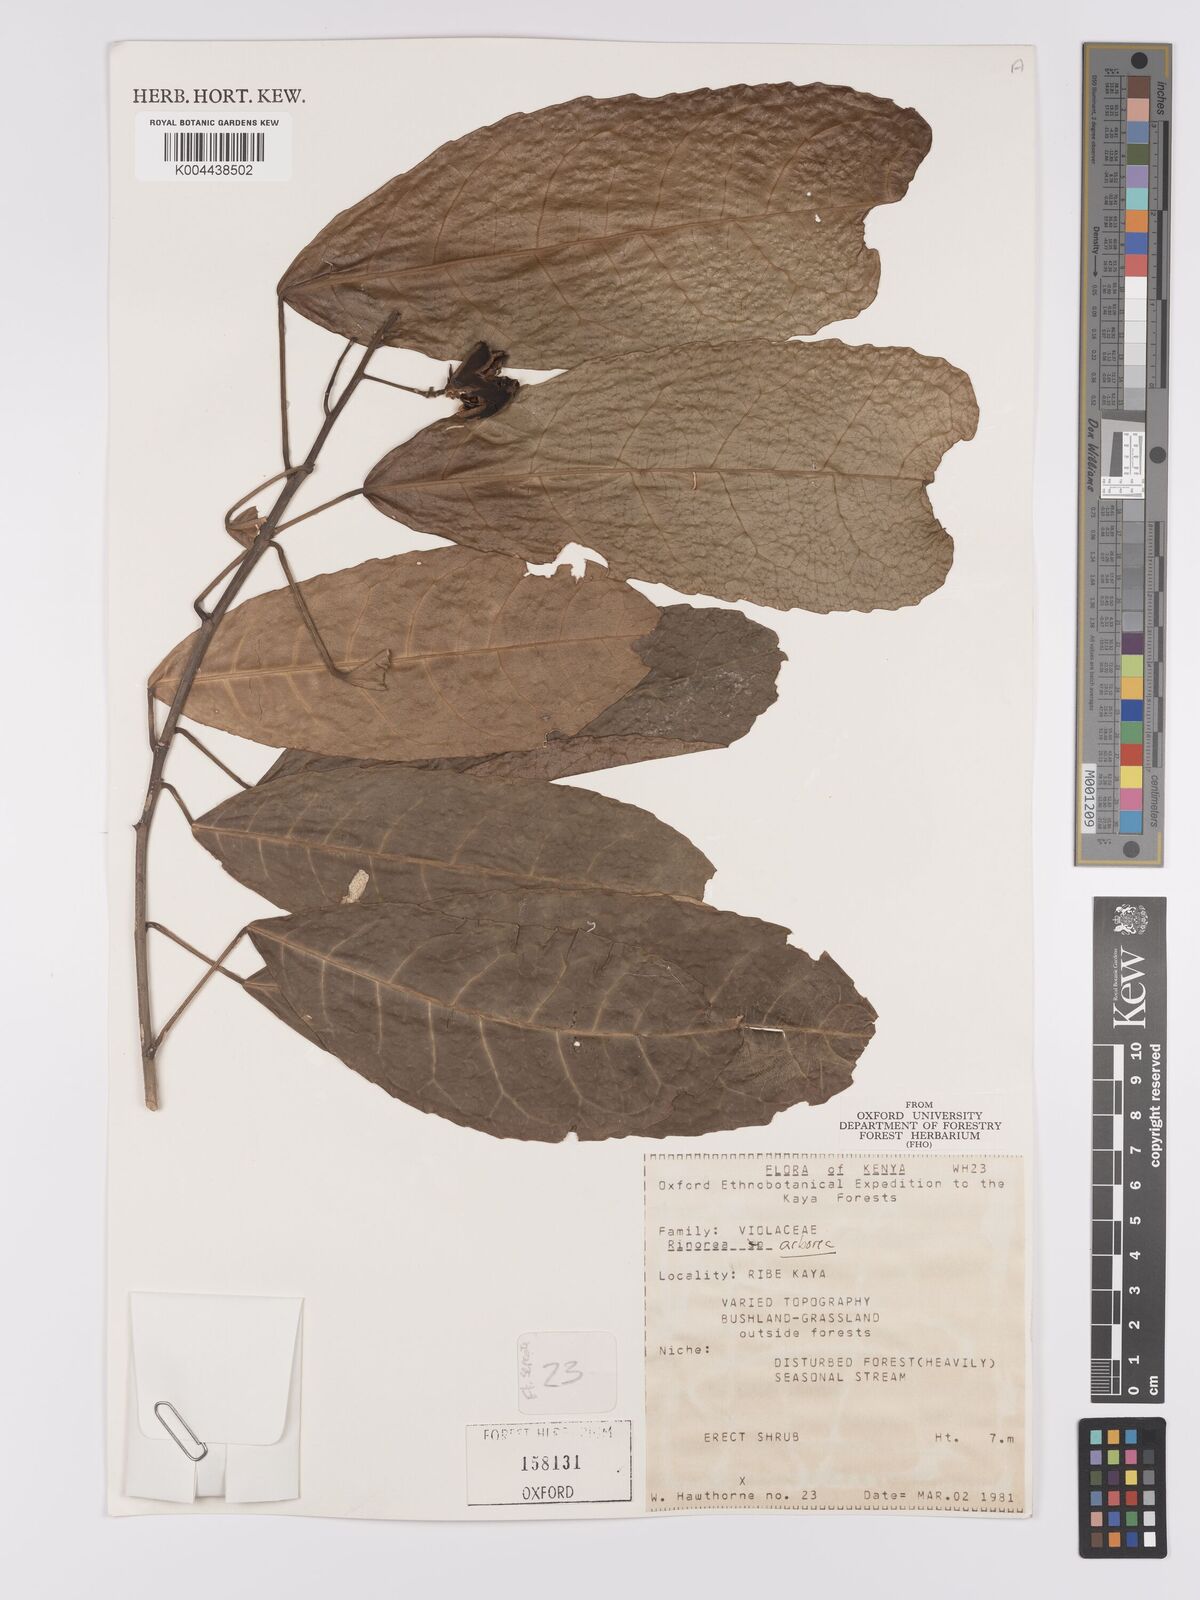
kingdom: Plantae
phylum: Tracheophyta
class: Magnoliopsida
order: Malpighiales
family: Violaceae
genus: Rinorea
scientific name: Rinorea arborea
